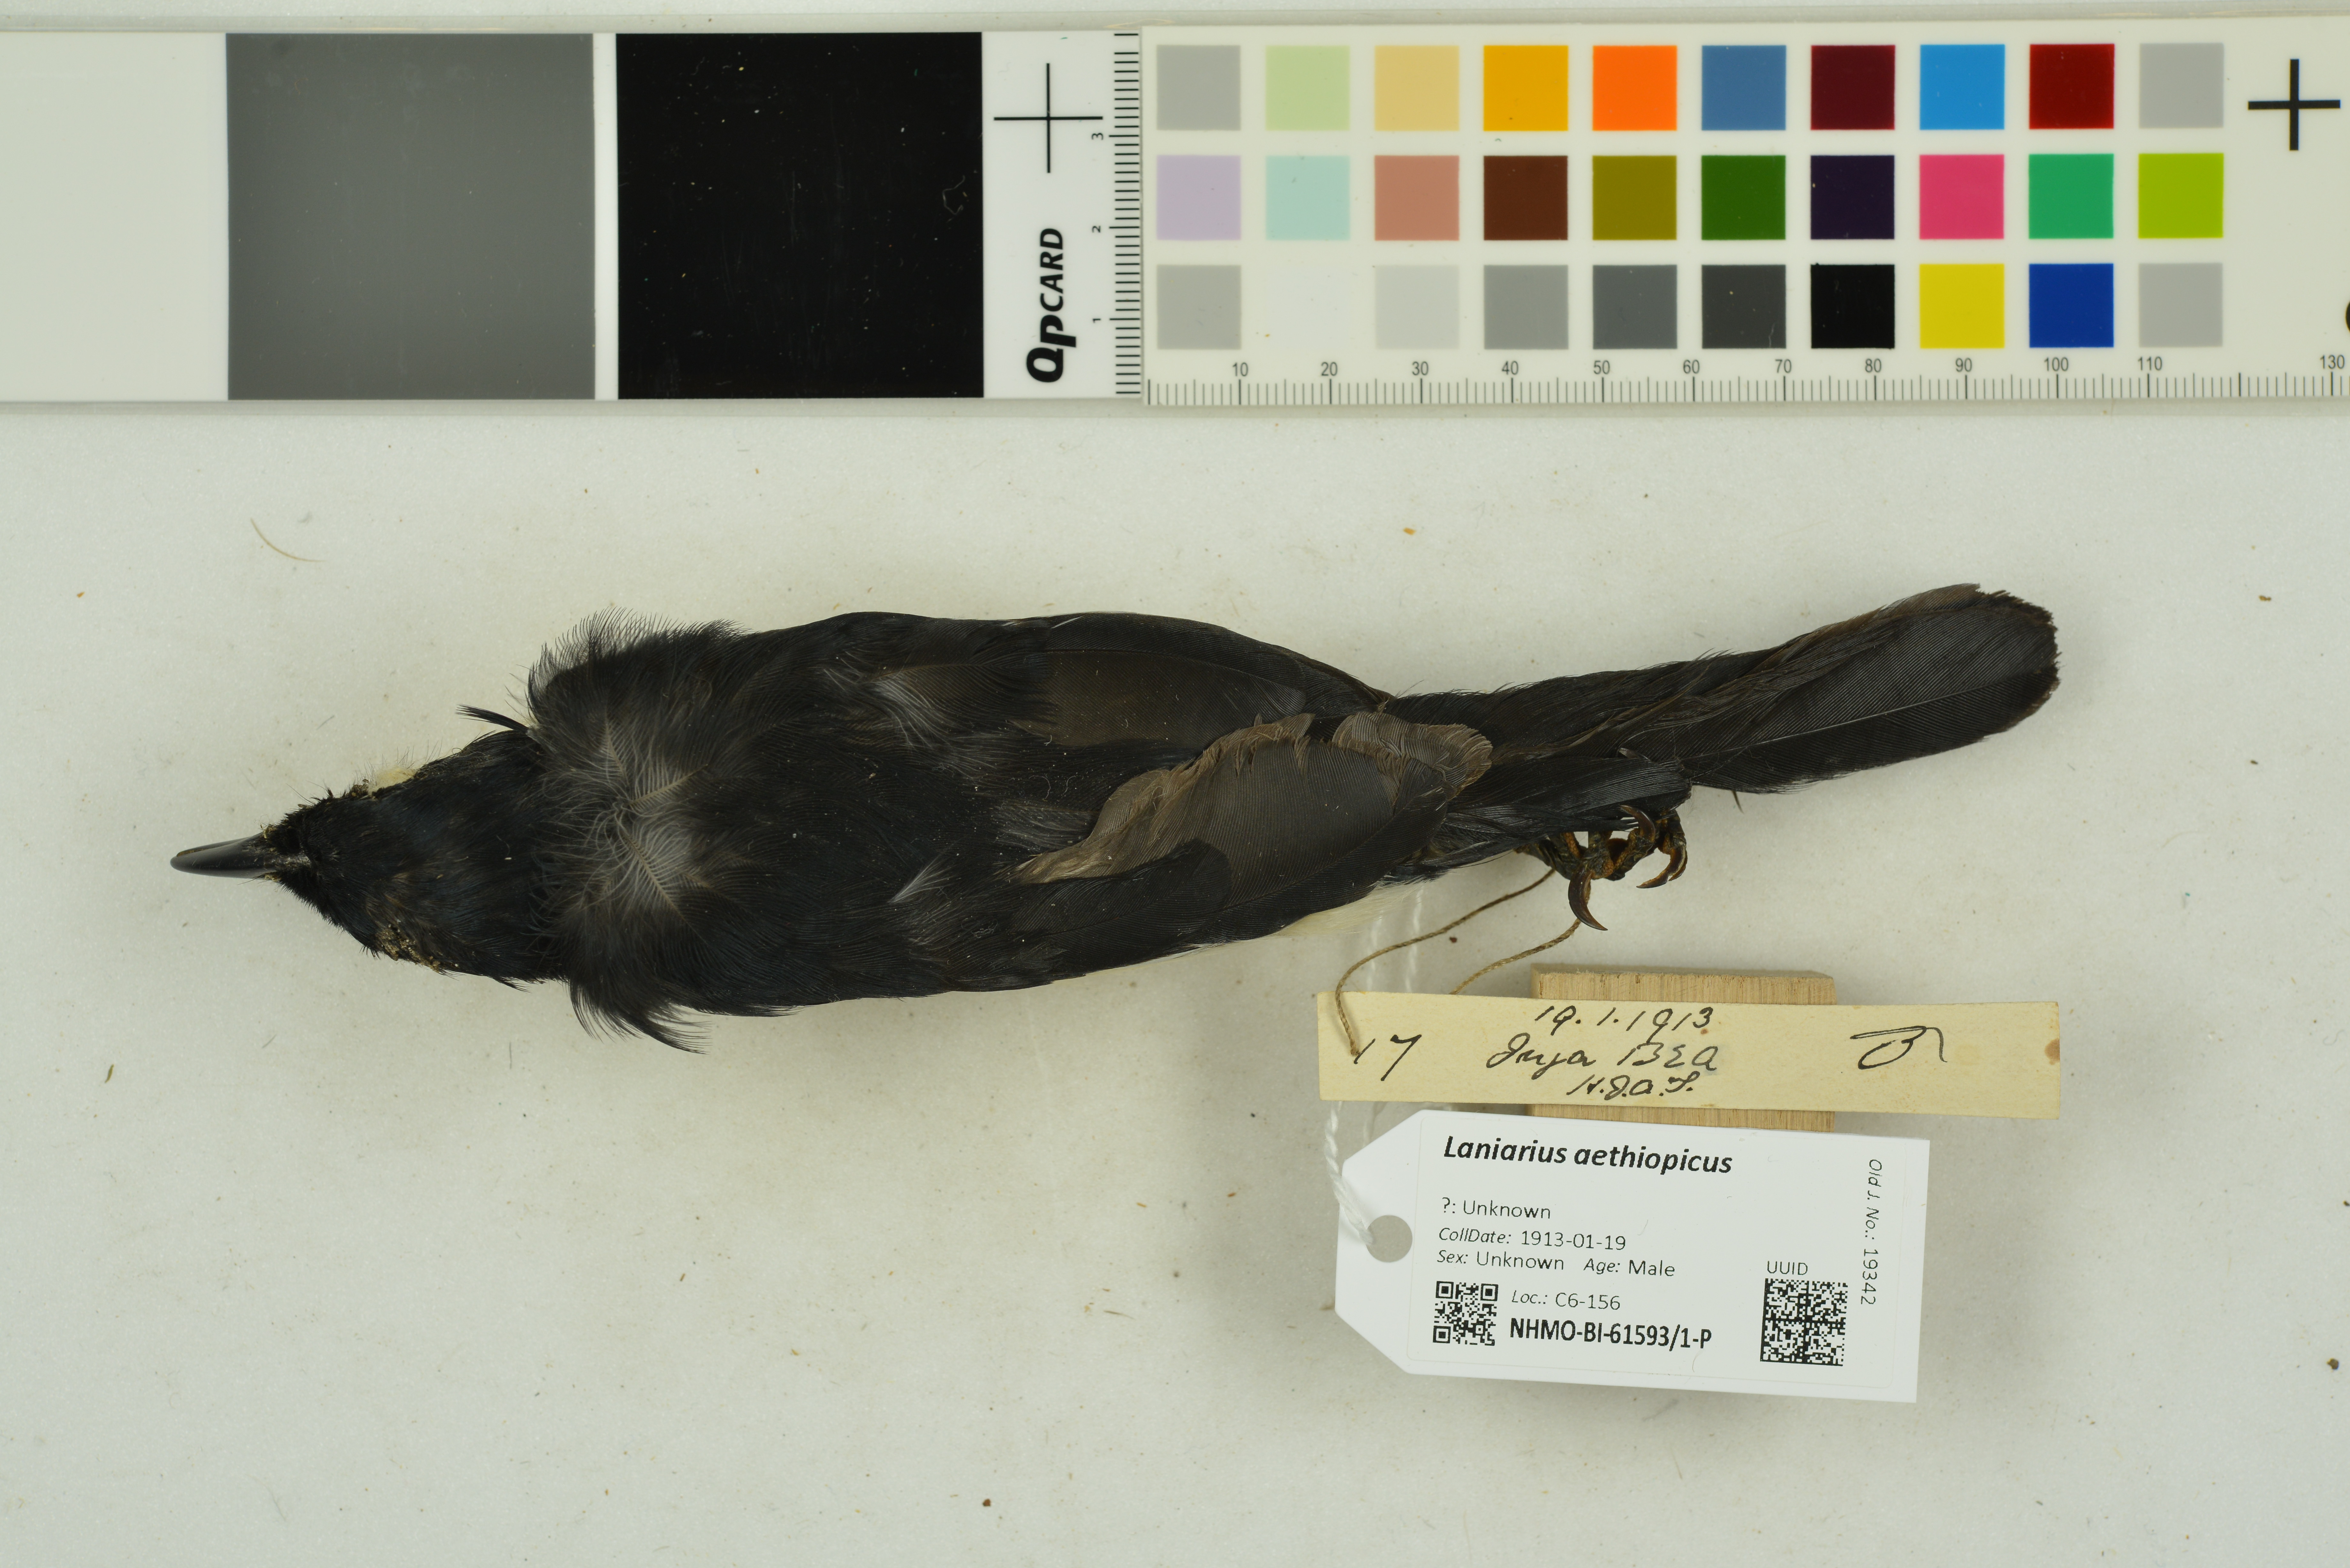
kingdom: Animalia
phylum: Chordata
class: Aves
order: Passeriformes
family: Malaconotidae
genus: Laniarius
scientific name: Laniarius aethiopicus
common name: Ethiopian boubou
